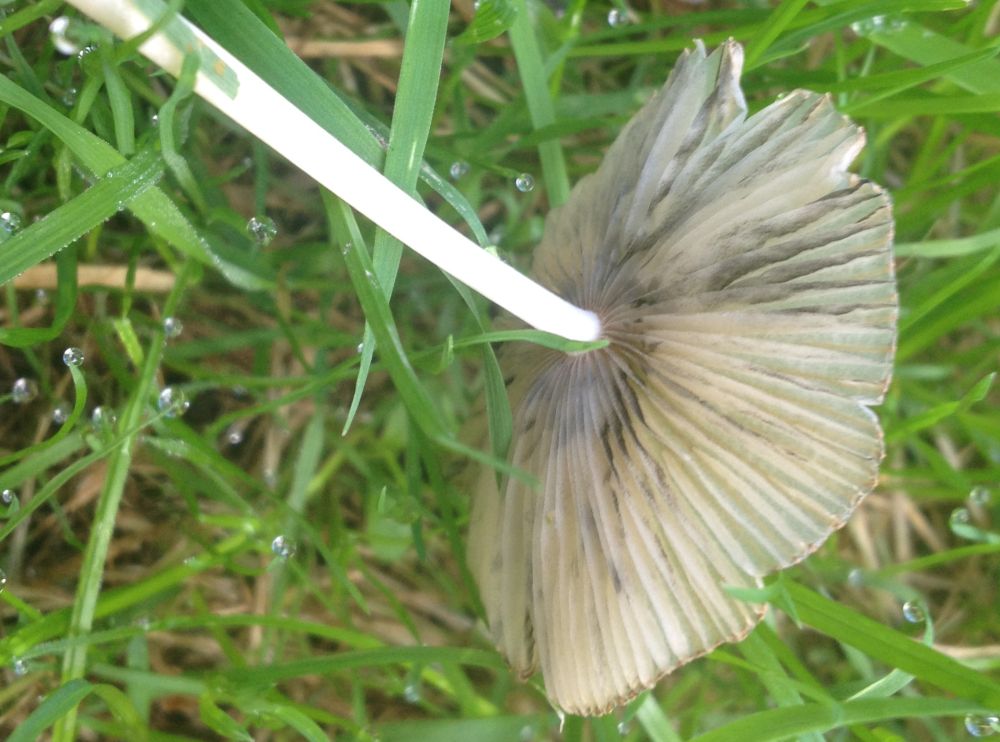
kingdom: Fungi
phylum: Basidiomycota
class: Agaricomycetes
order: Agaricales
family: Psathyrellaceae
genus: Parasola
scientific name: Parasola
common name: hjulhat
